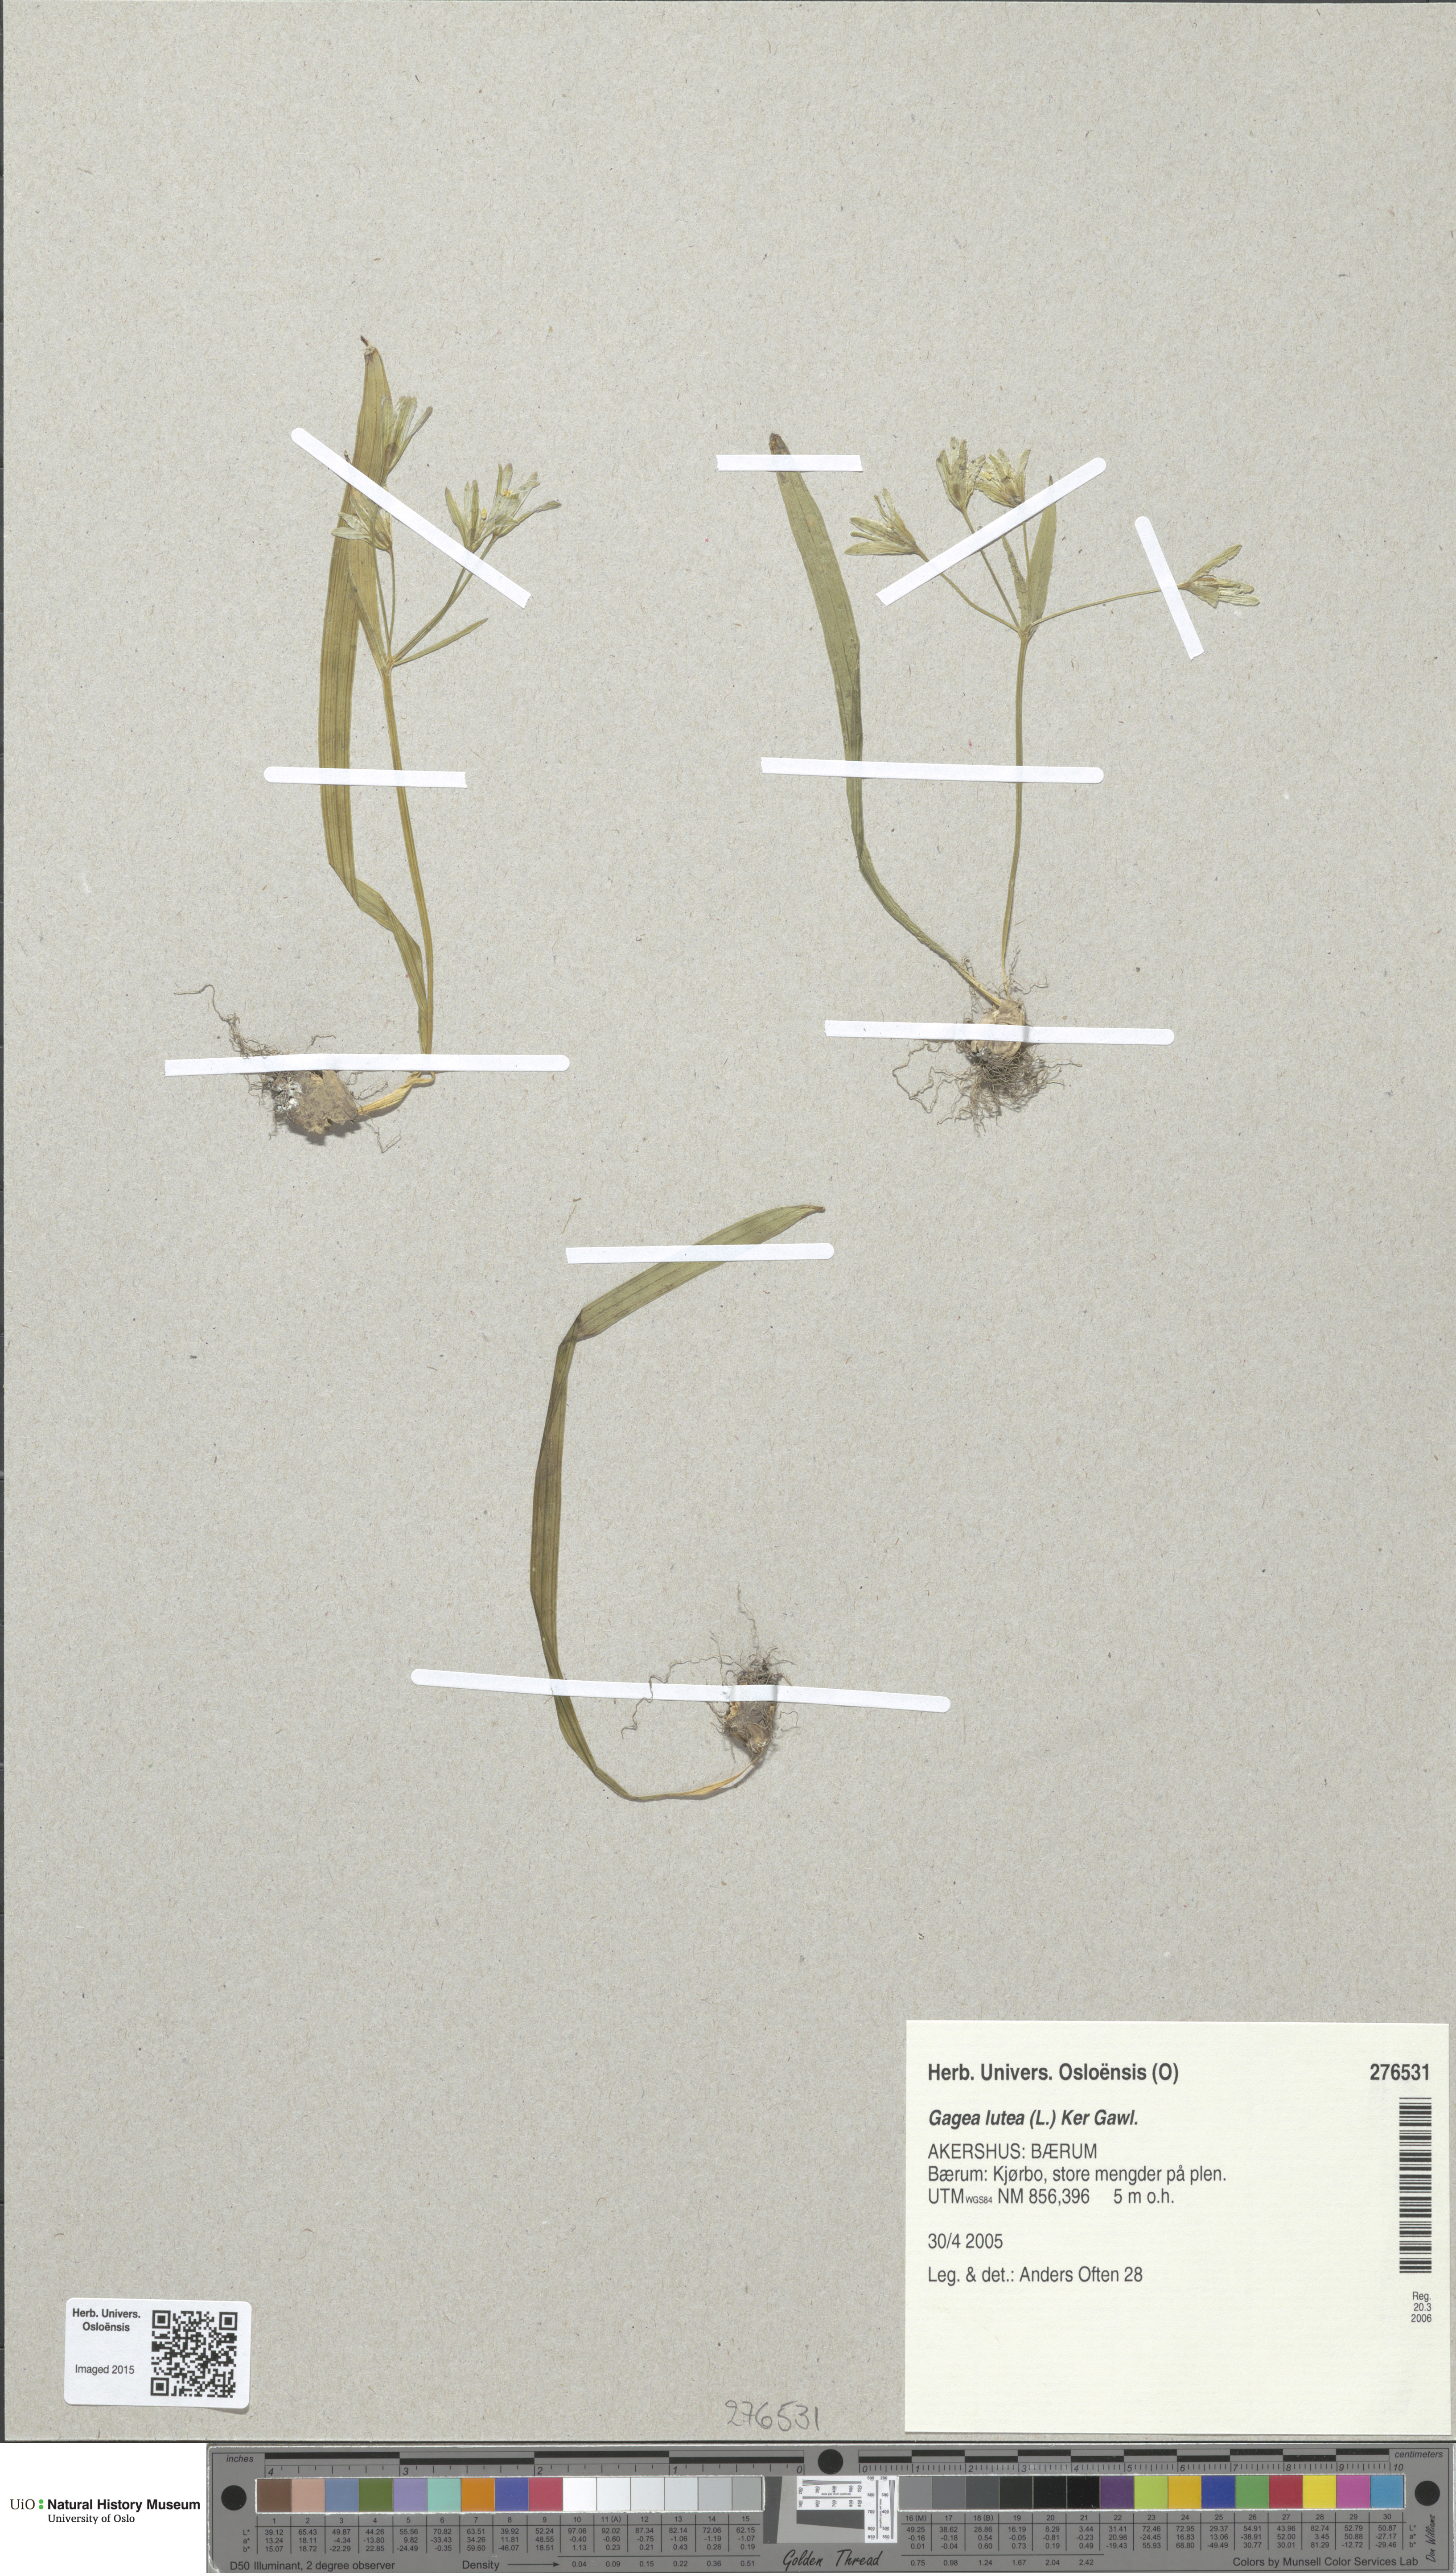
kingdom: Plantae
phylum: Tracheophyta
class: Liliopsida
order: Liliales
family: Liliaceae
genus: Gagea
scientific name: Gagea lutea
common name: Yellow star-of-bethlehem
